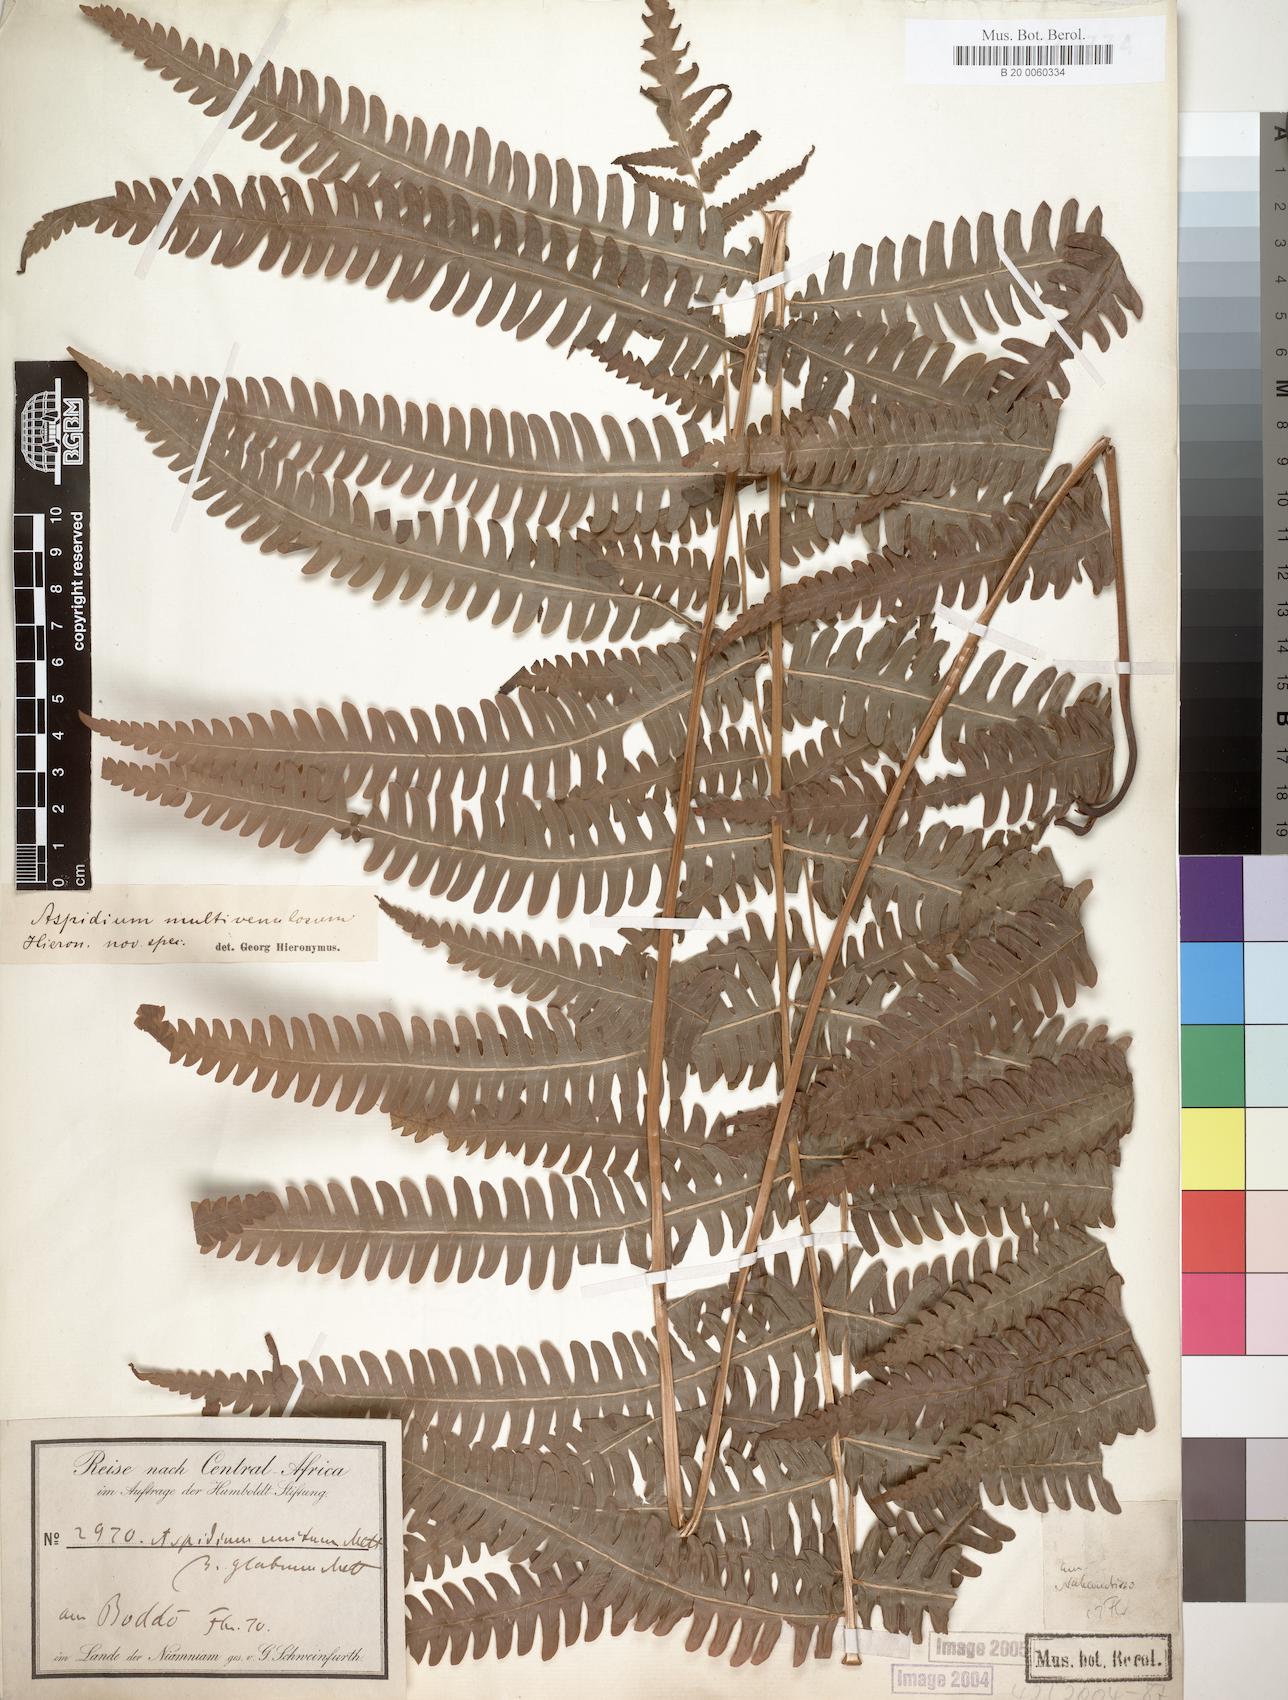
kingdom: Plantae
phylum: Tracheophyta
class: Polypodiopsida
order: Polypodiales
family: Thelypteridaceae
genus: Cyclosorus
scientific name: Cyclosorus interruptus
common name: Neke fern
